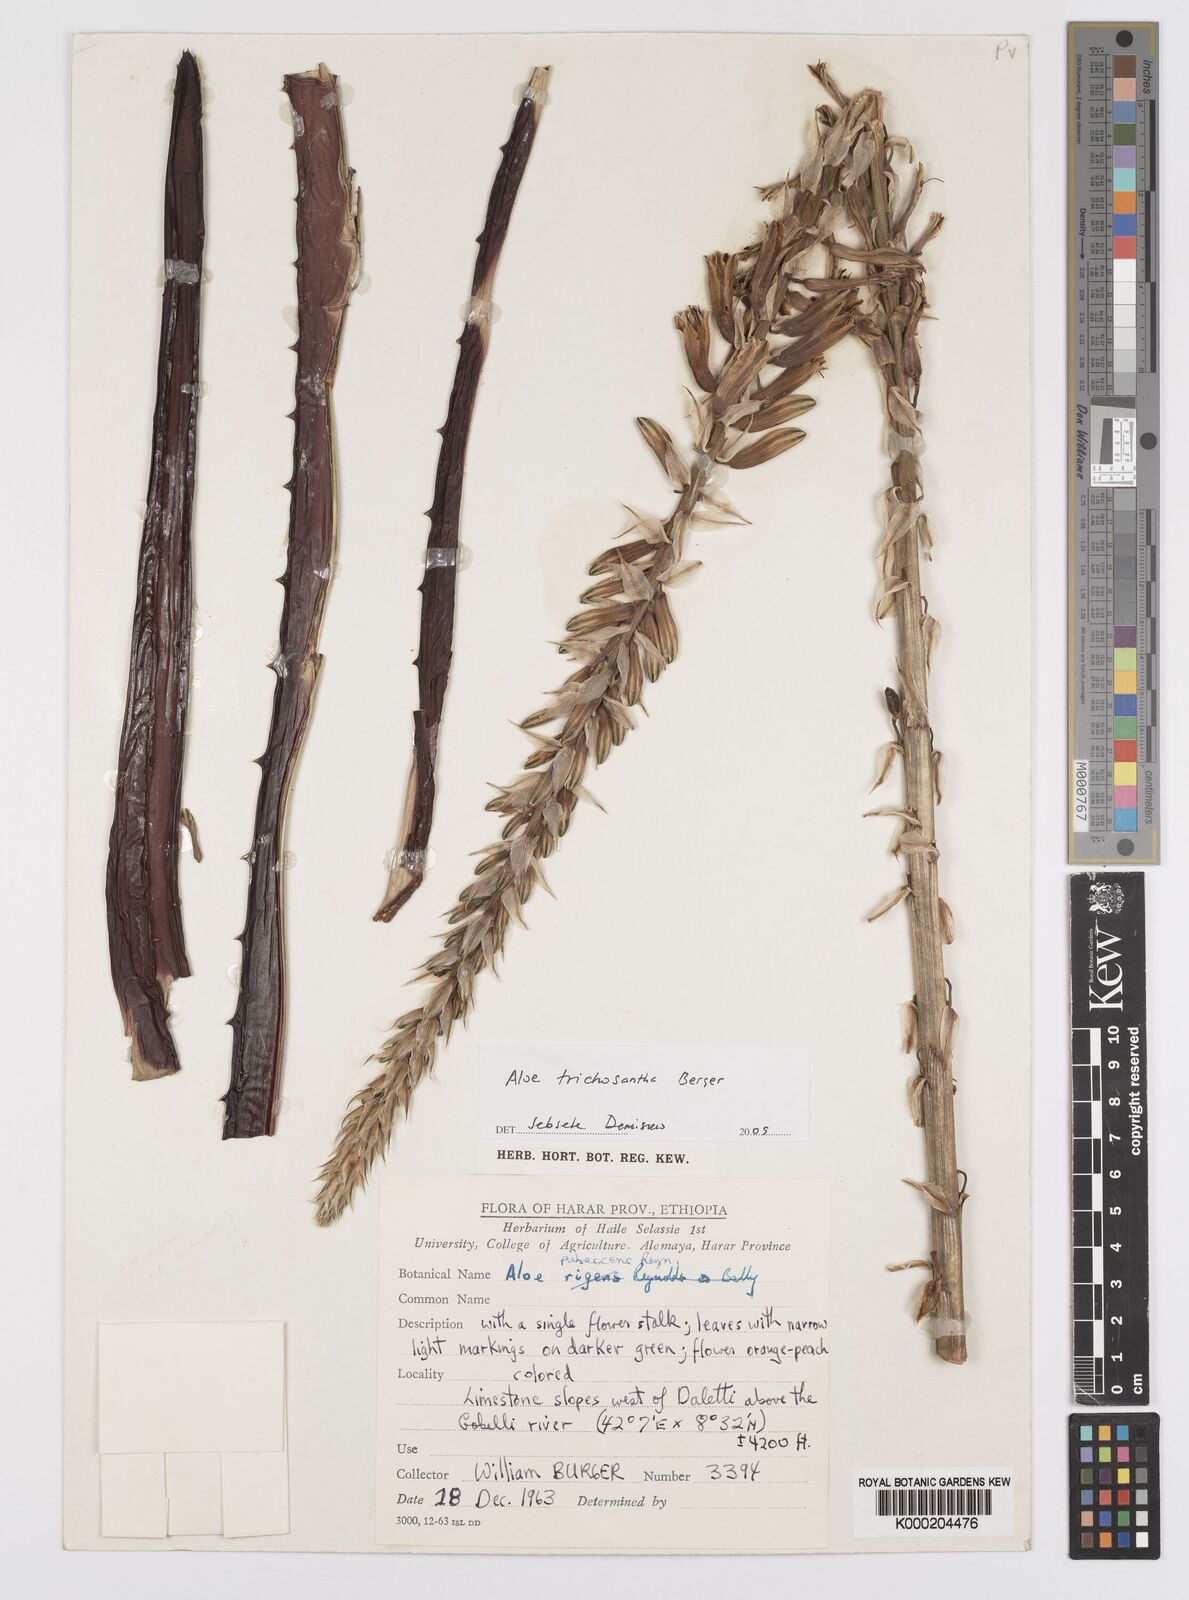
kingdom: Plantae
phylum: Tracheophyta
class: Liliopsida
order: Asparagales
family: Asphodelaceae
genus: Aloe
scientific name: Aloe trichosantha
